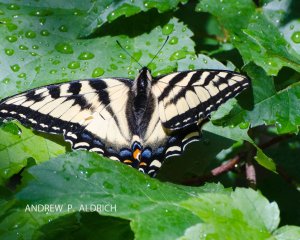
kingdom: Animalia
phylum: Arthropoda
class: Insecta
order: Lepidoptera
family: Papilionidae
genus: Pterourus
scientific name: Pterourus canadensis
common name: Canadian Tiger Swallowtail
